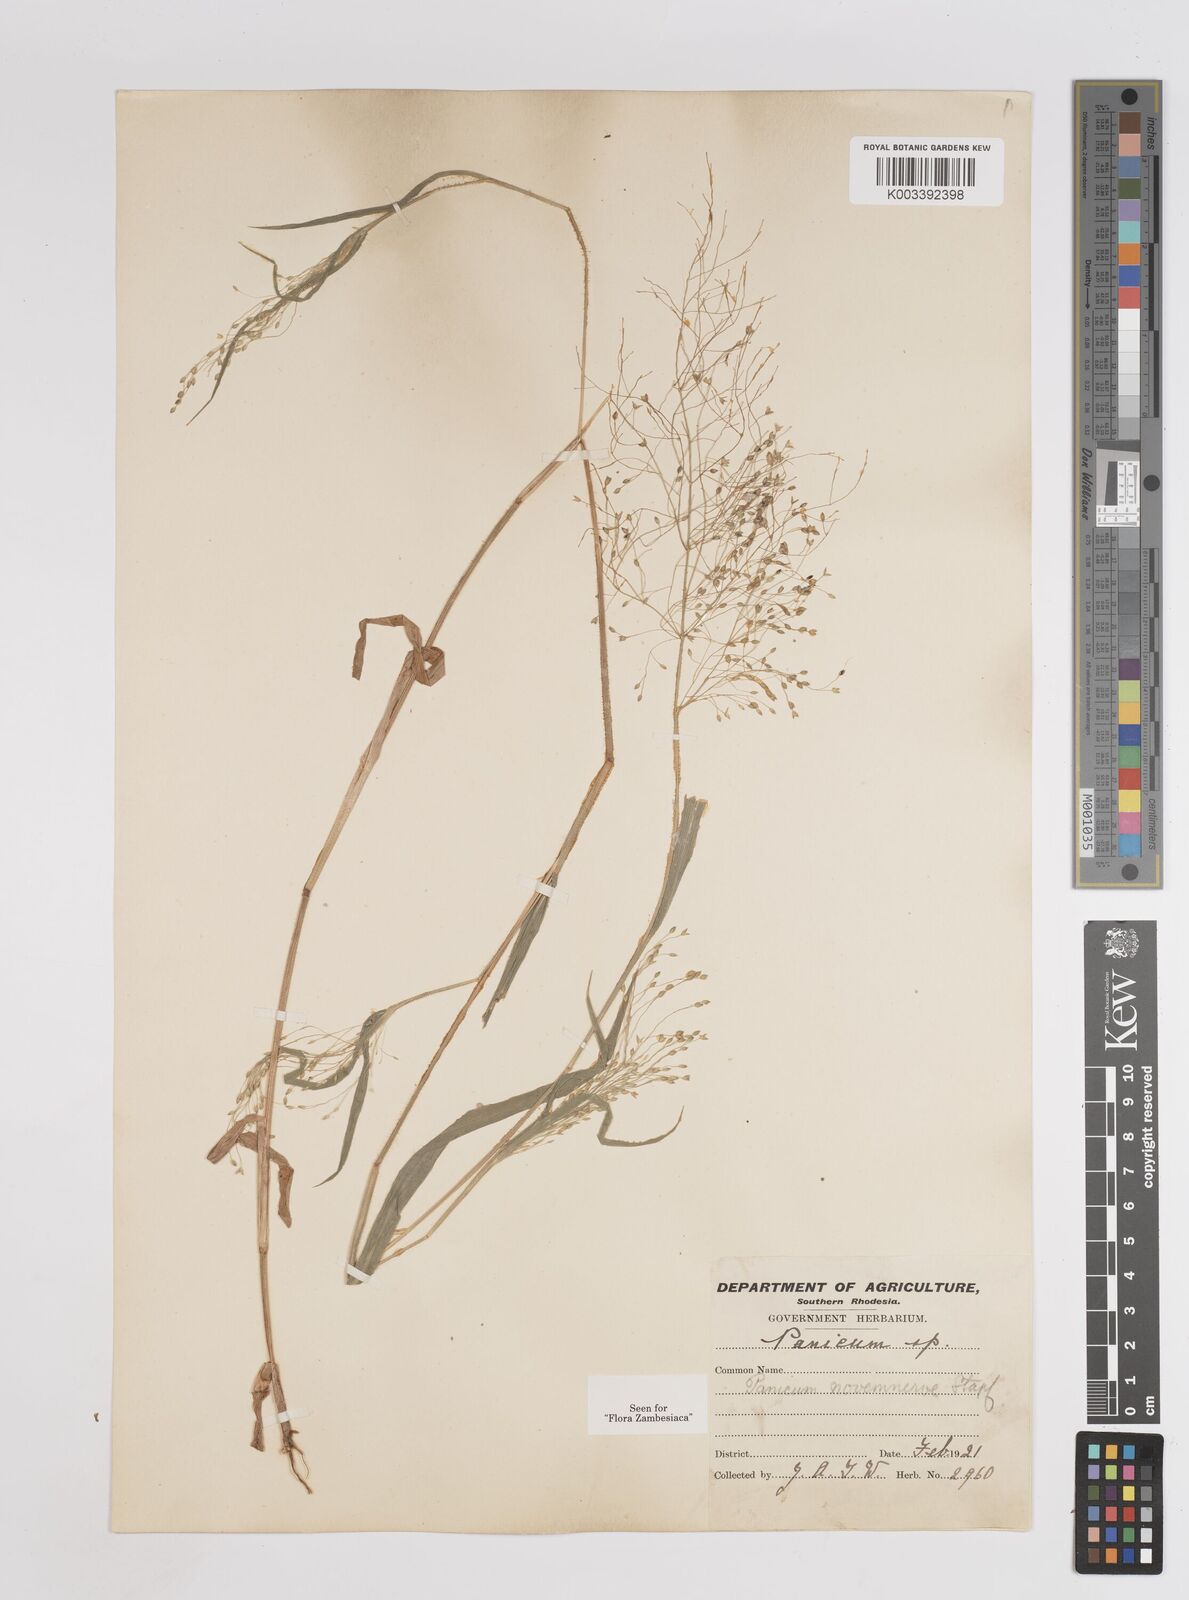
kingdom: Plantae
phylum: Tracheophyta
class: Liliopsida
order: Poales
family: Poaceae
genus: Panicum
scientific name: Panicum novemnerve
